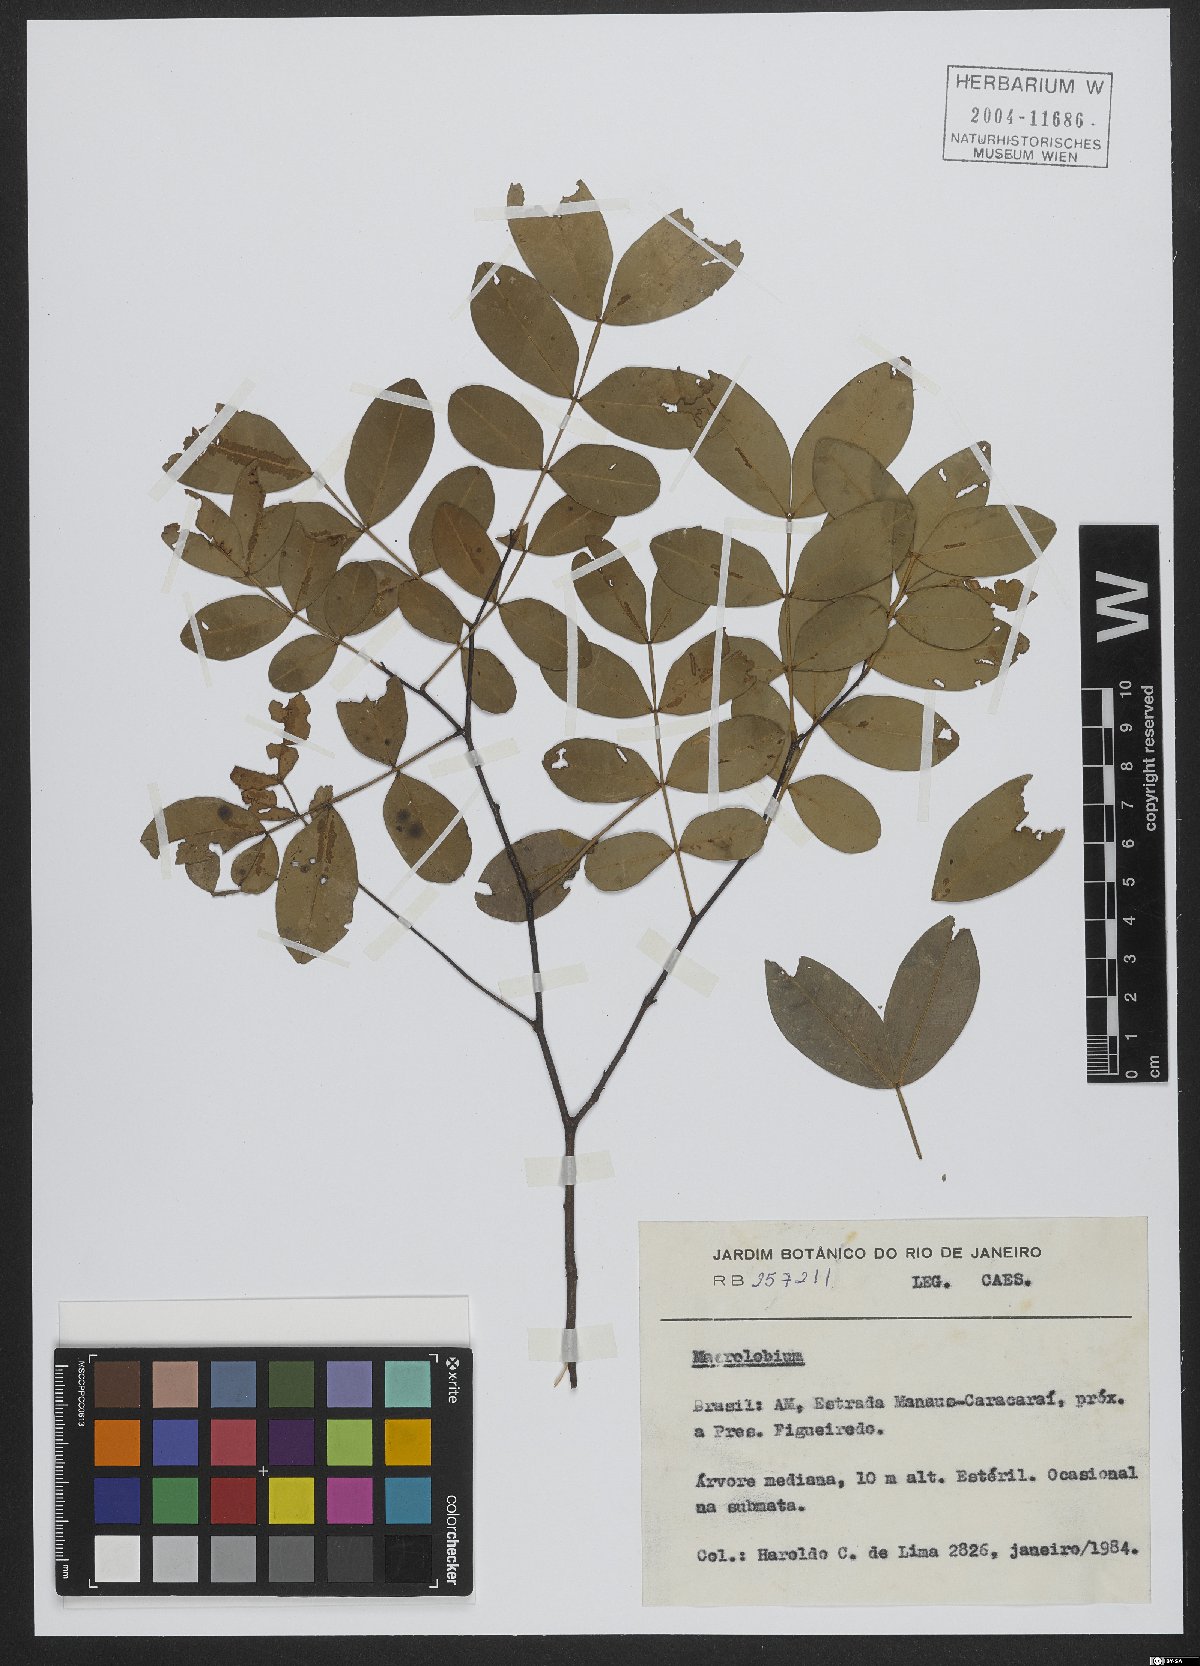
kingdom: Plantae
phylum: Tracheophyta
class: Magnoliopsida
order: Fabales
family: Fabaceae
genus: Macrolobium
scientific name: Macrolobium
